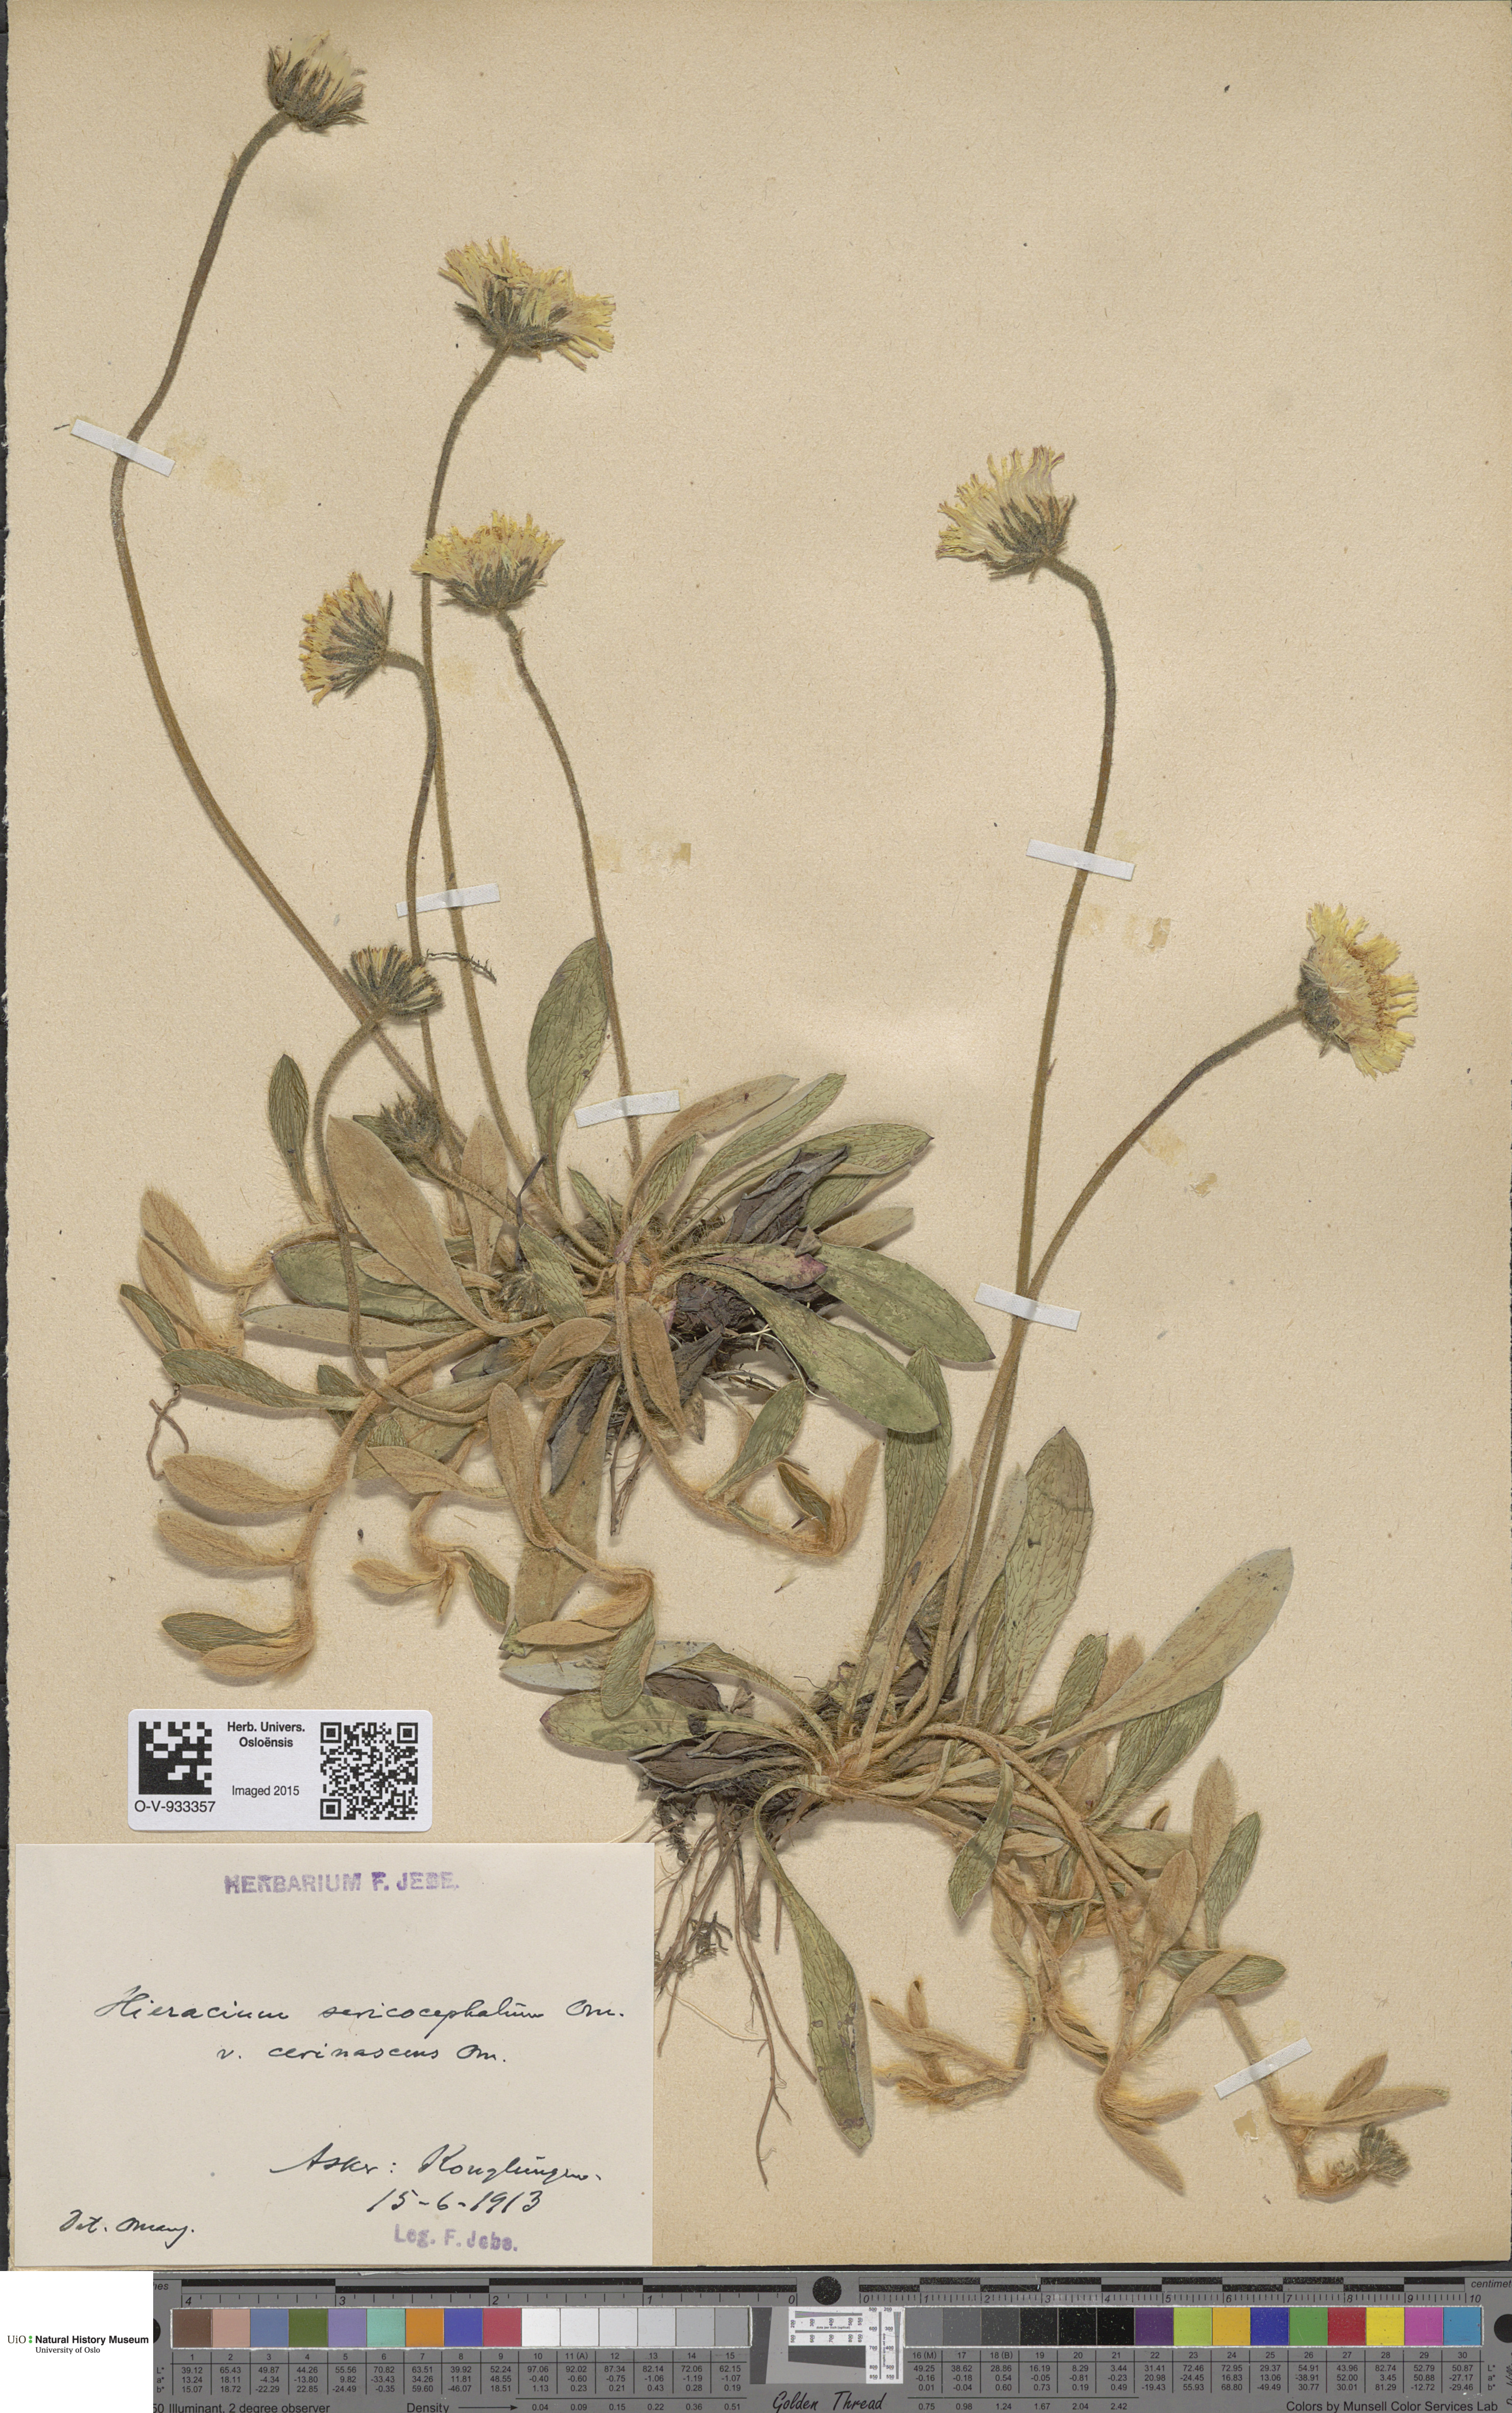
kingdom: Plantae
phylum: Tracheophyta
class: Magnoliopsida
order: Asterales
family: Asteraceae
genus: Pilosella
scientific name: Pilosella officinarum
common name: Mouse-ear hawkweed
